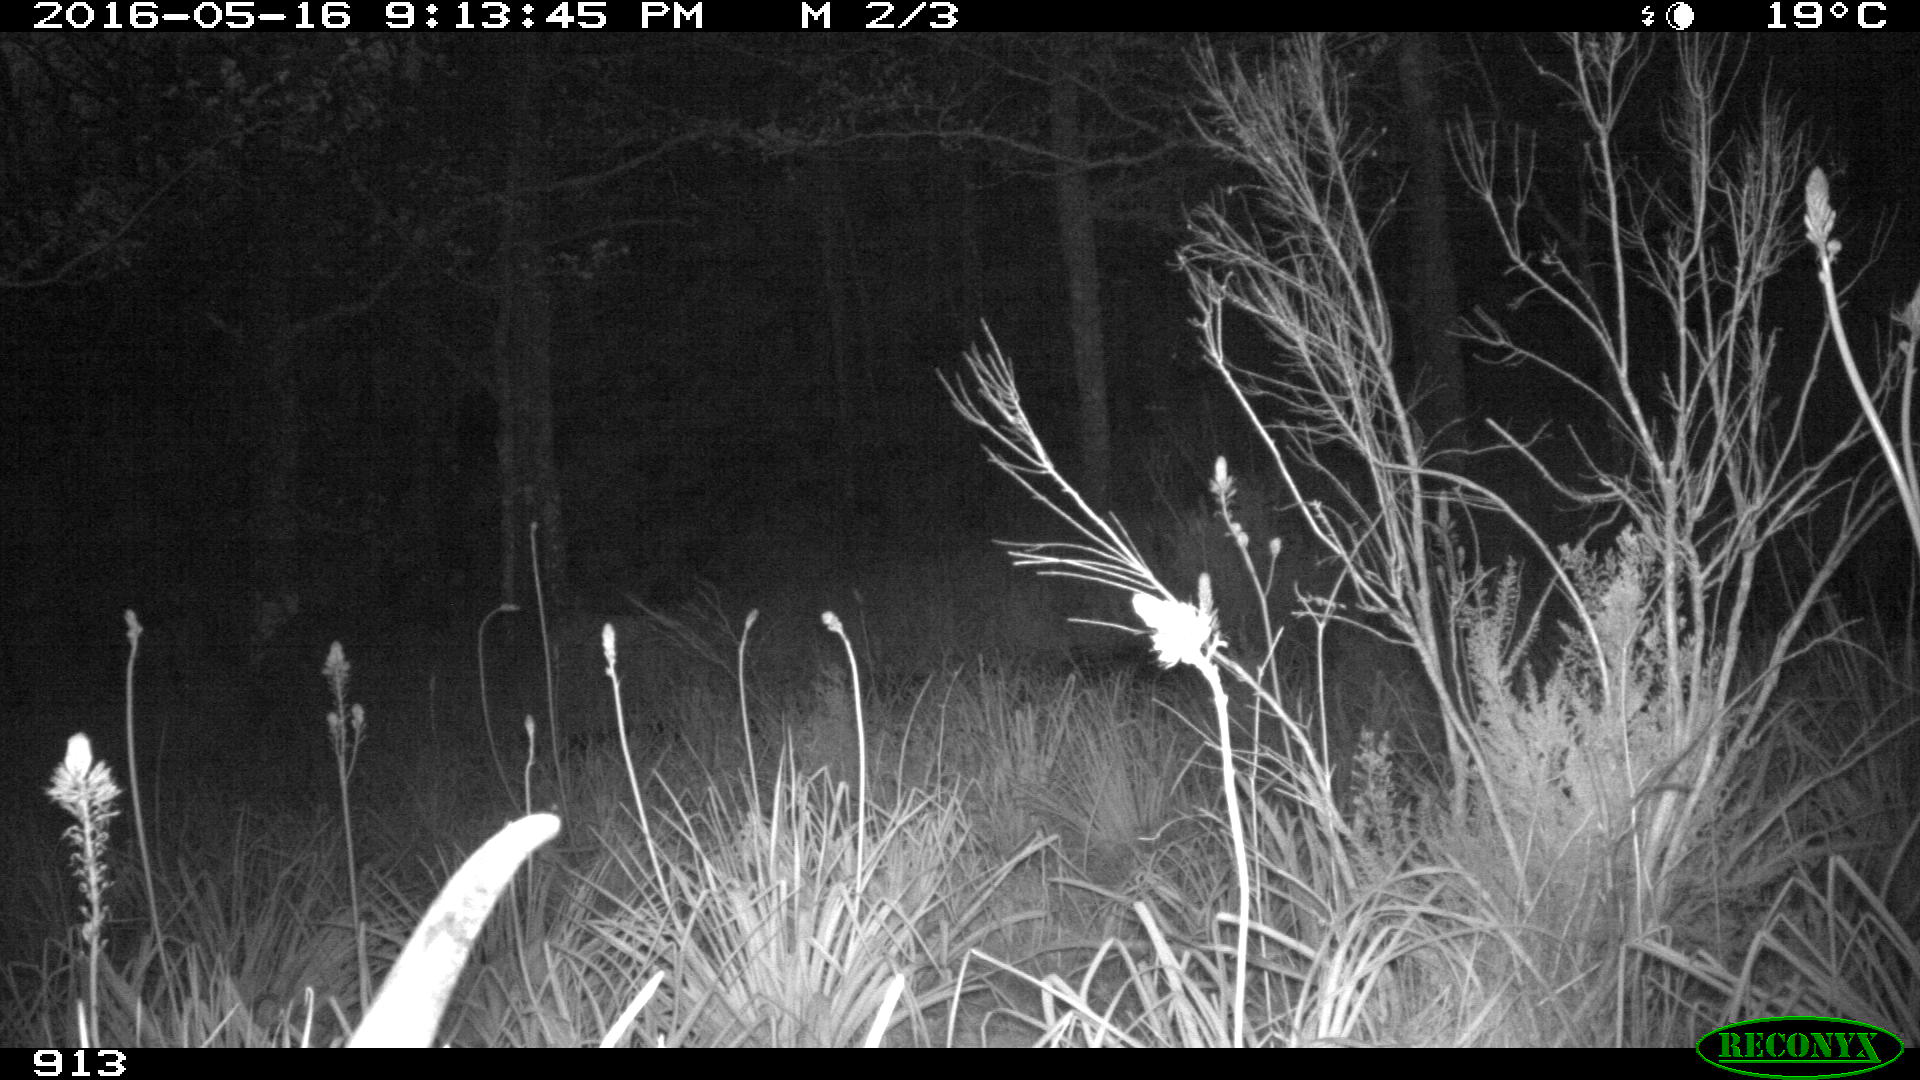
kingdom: Animalia
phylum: Chordata
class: Mammalia
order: Artiodactyla
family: Bovidae
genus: Bos
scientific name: Bos taurus
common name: Domesticated cattle
